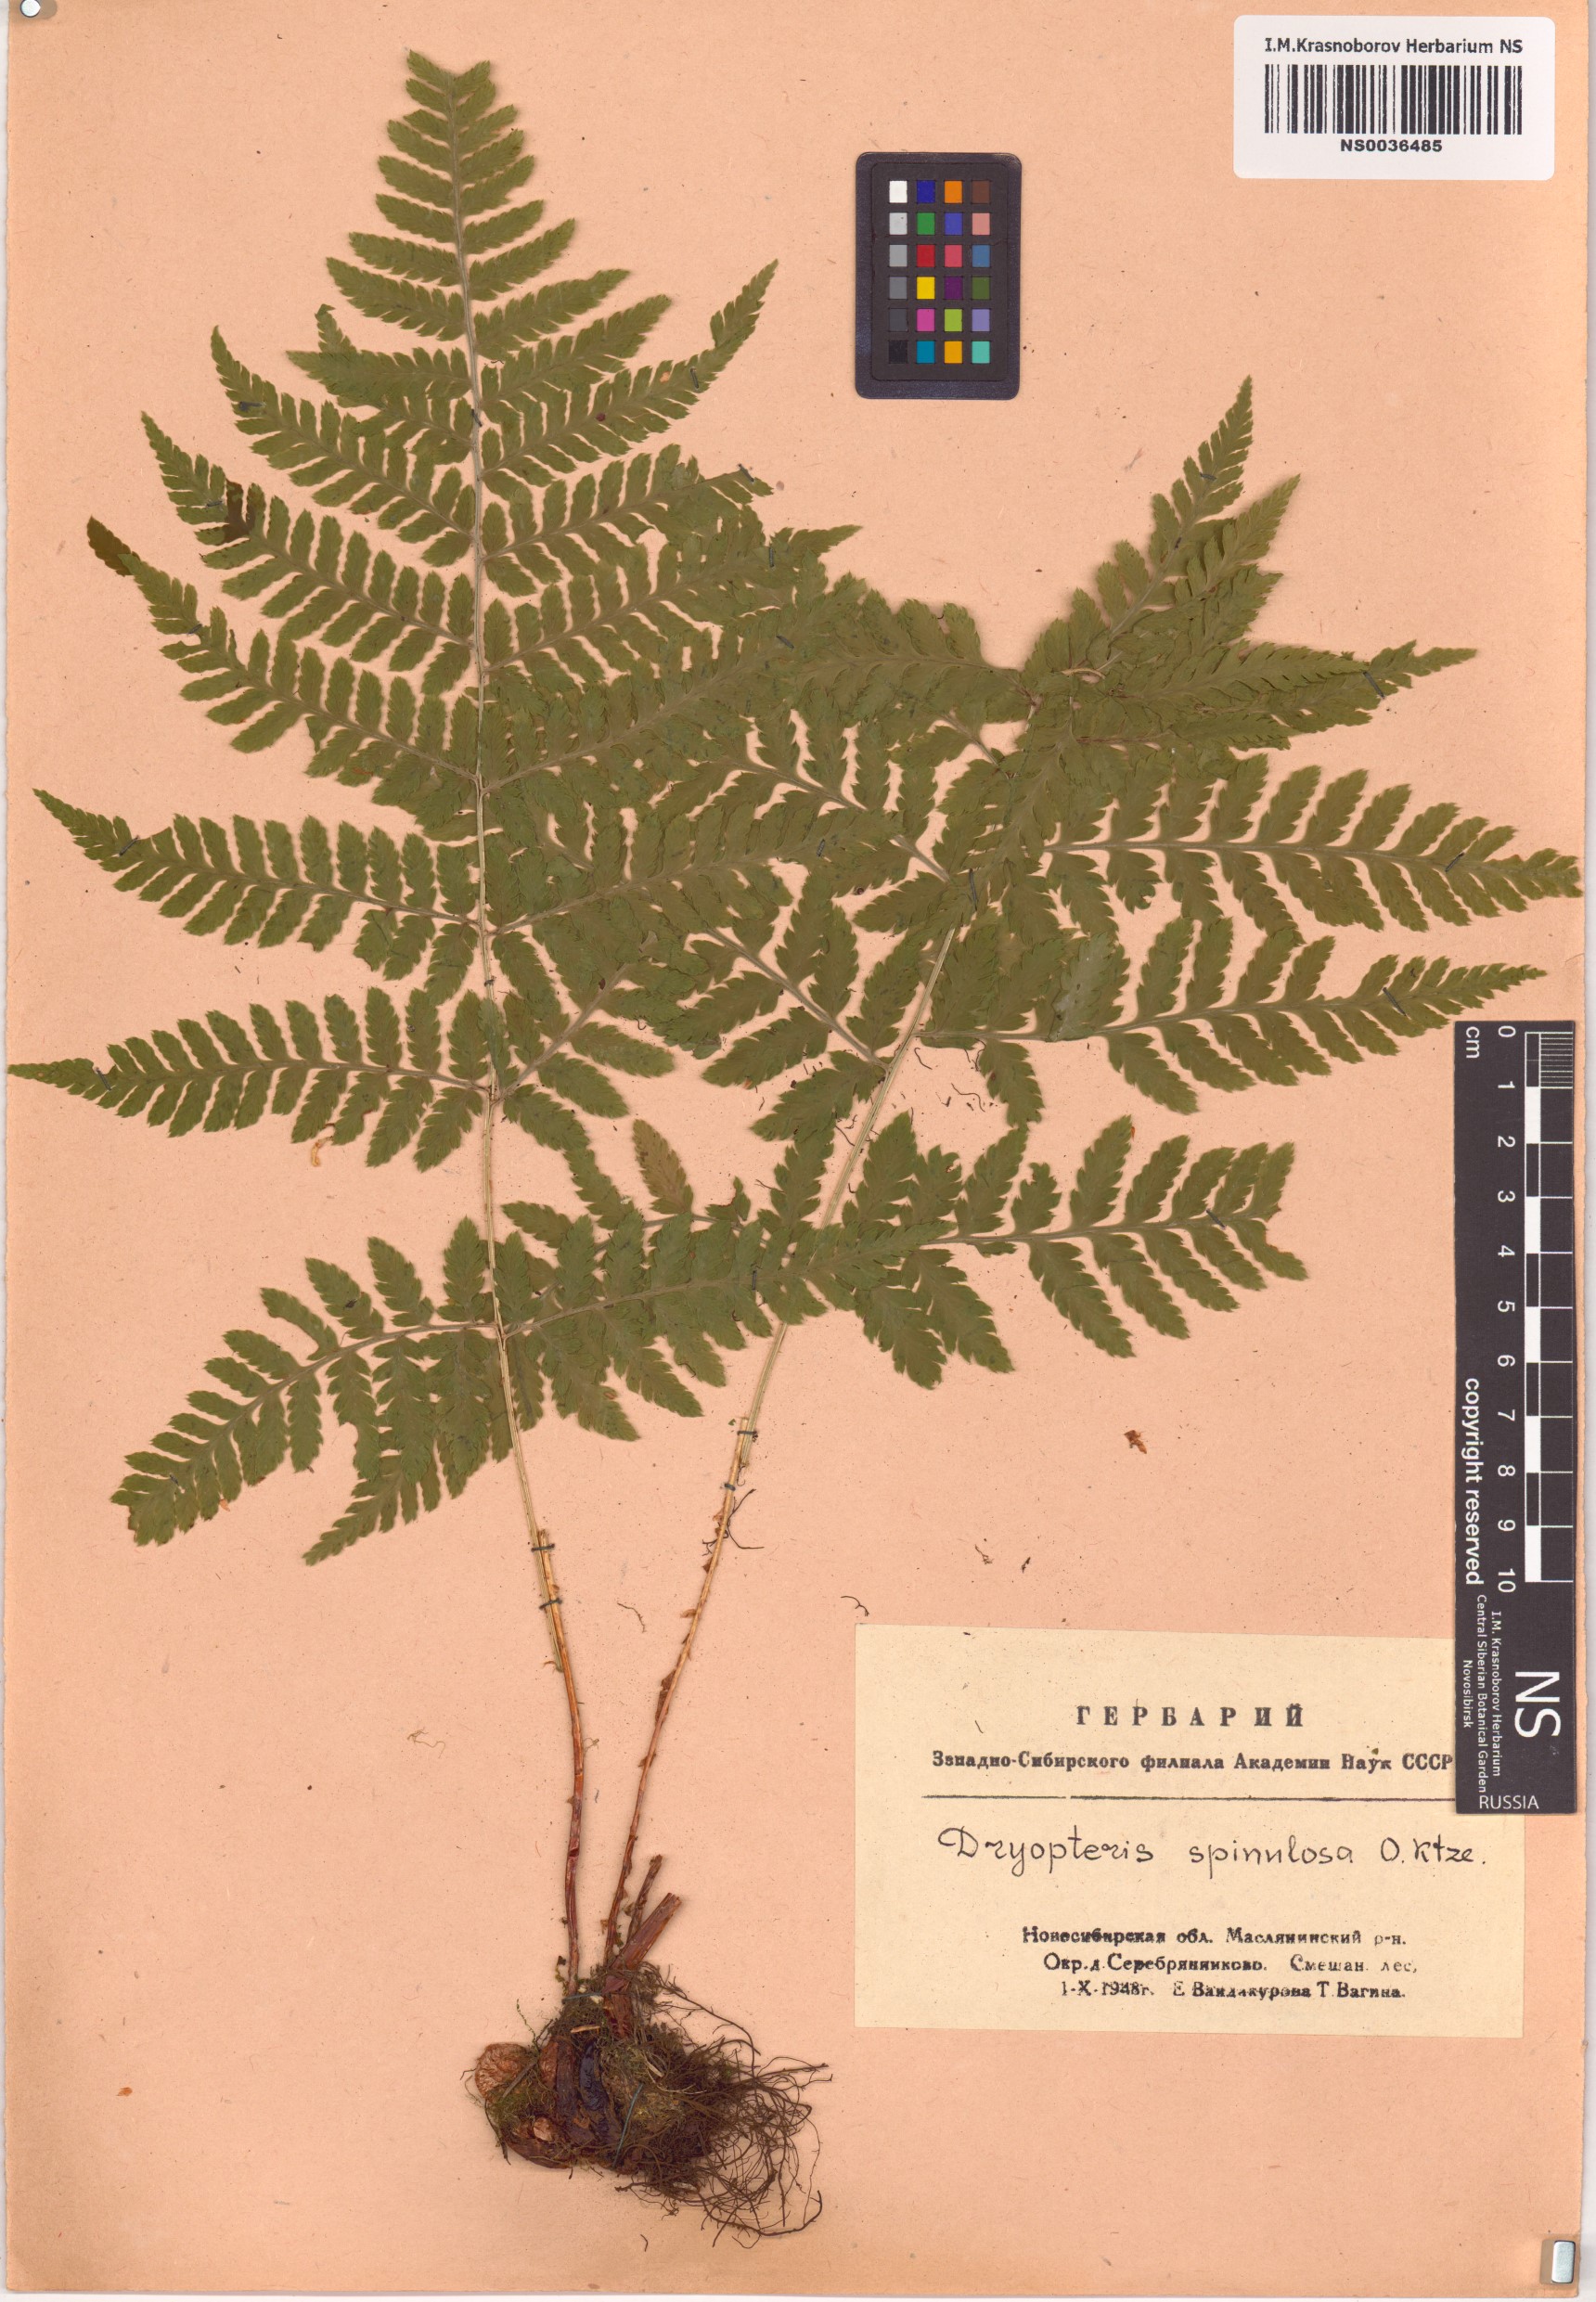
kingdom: Plantae
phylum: Tracheophyta
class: Polypodiopsida
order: Polypodiales
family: Dryopteridaceae
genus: Dryopteris
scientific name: Dryopteris carthusiana
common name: Narrow buckler-fern
